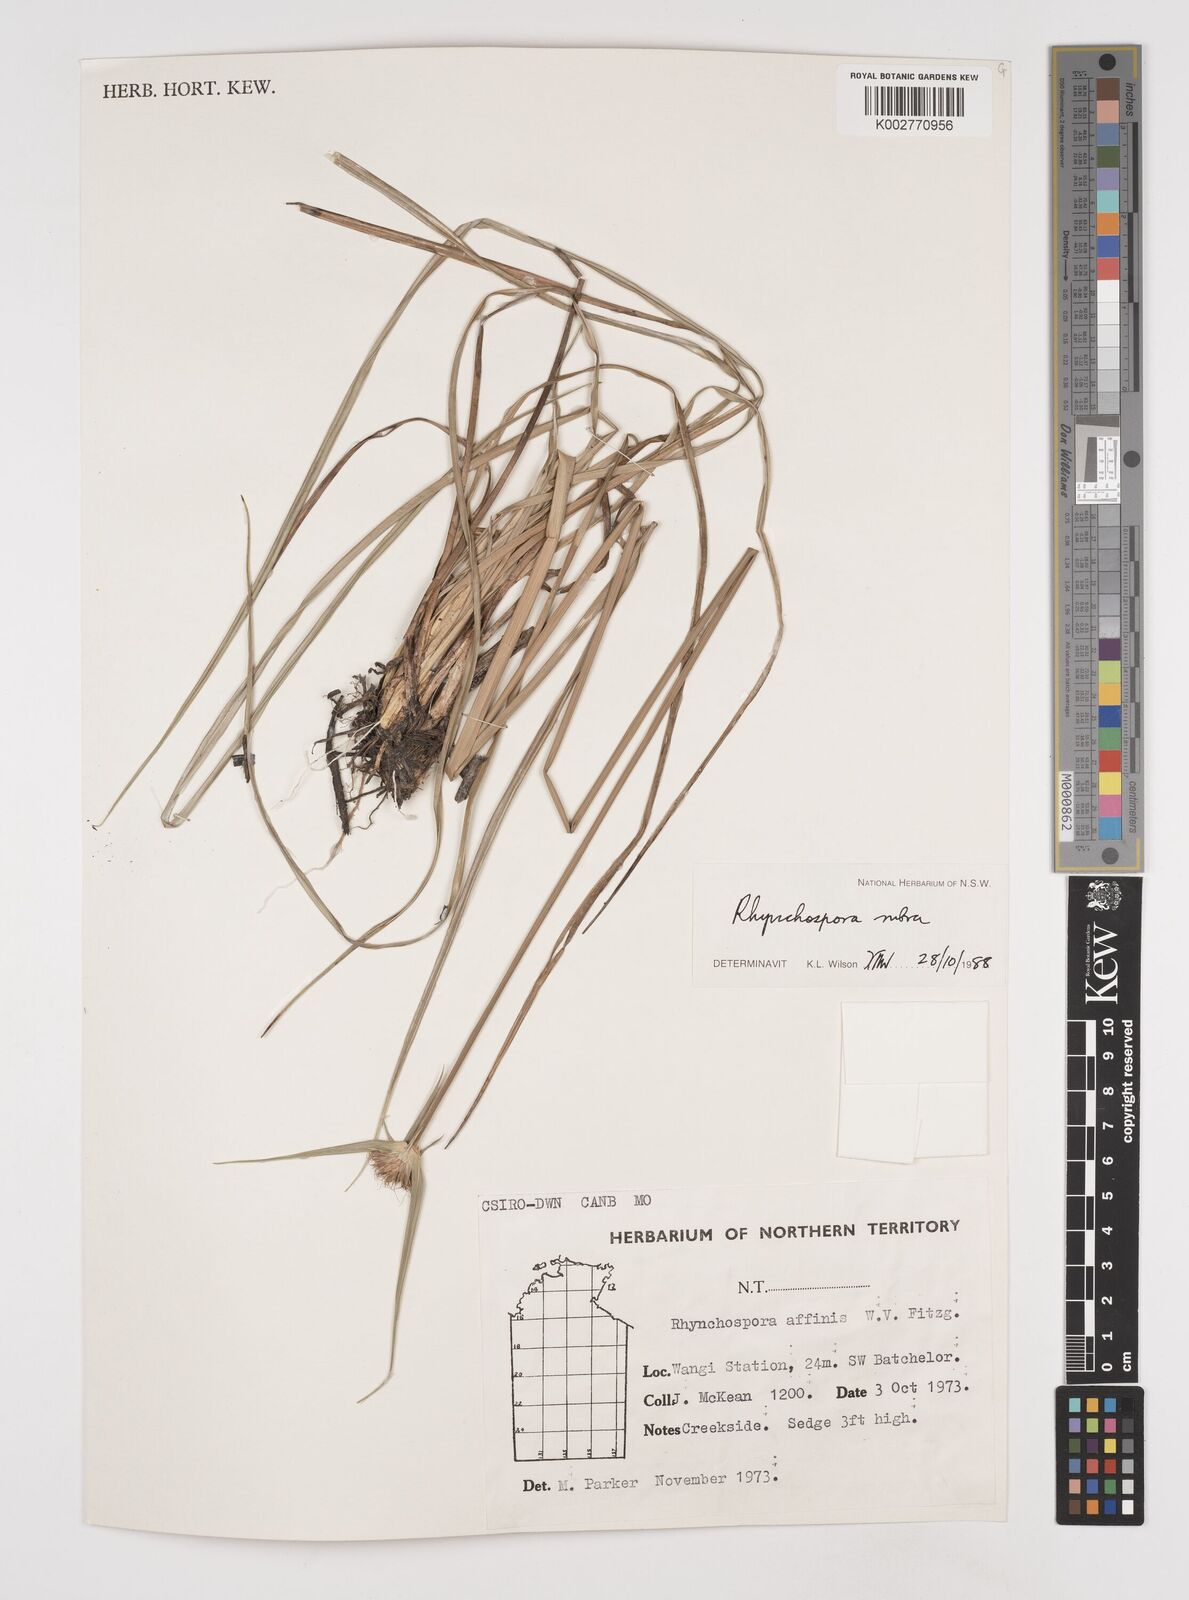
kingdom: Plantae
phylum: Tracheophyta
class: Liliopsida
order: Poales
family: Cyperaceae
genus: Rhynchospora
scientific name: Rhynchospora rubra
